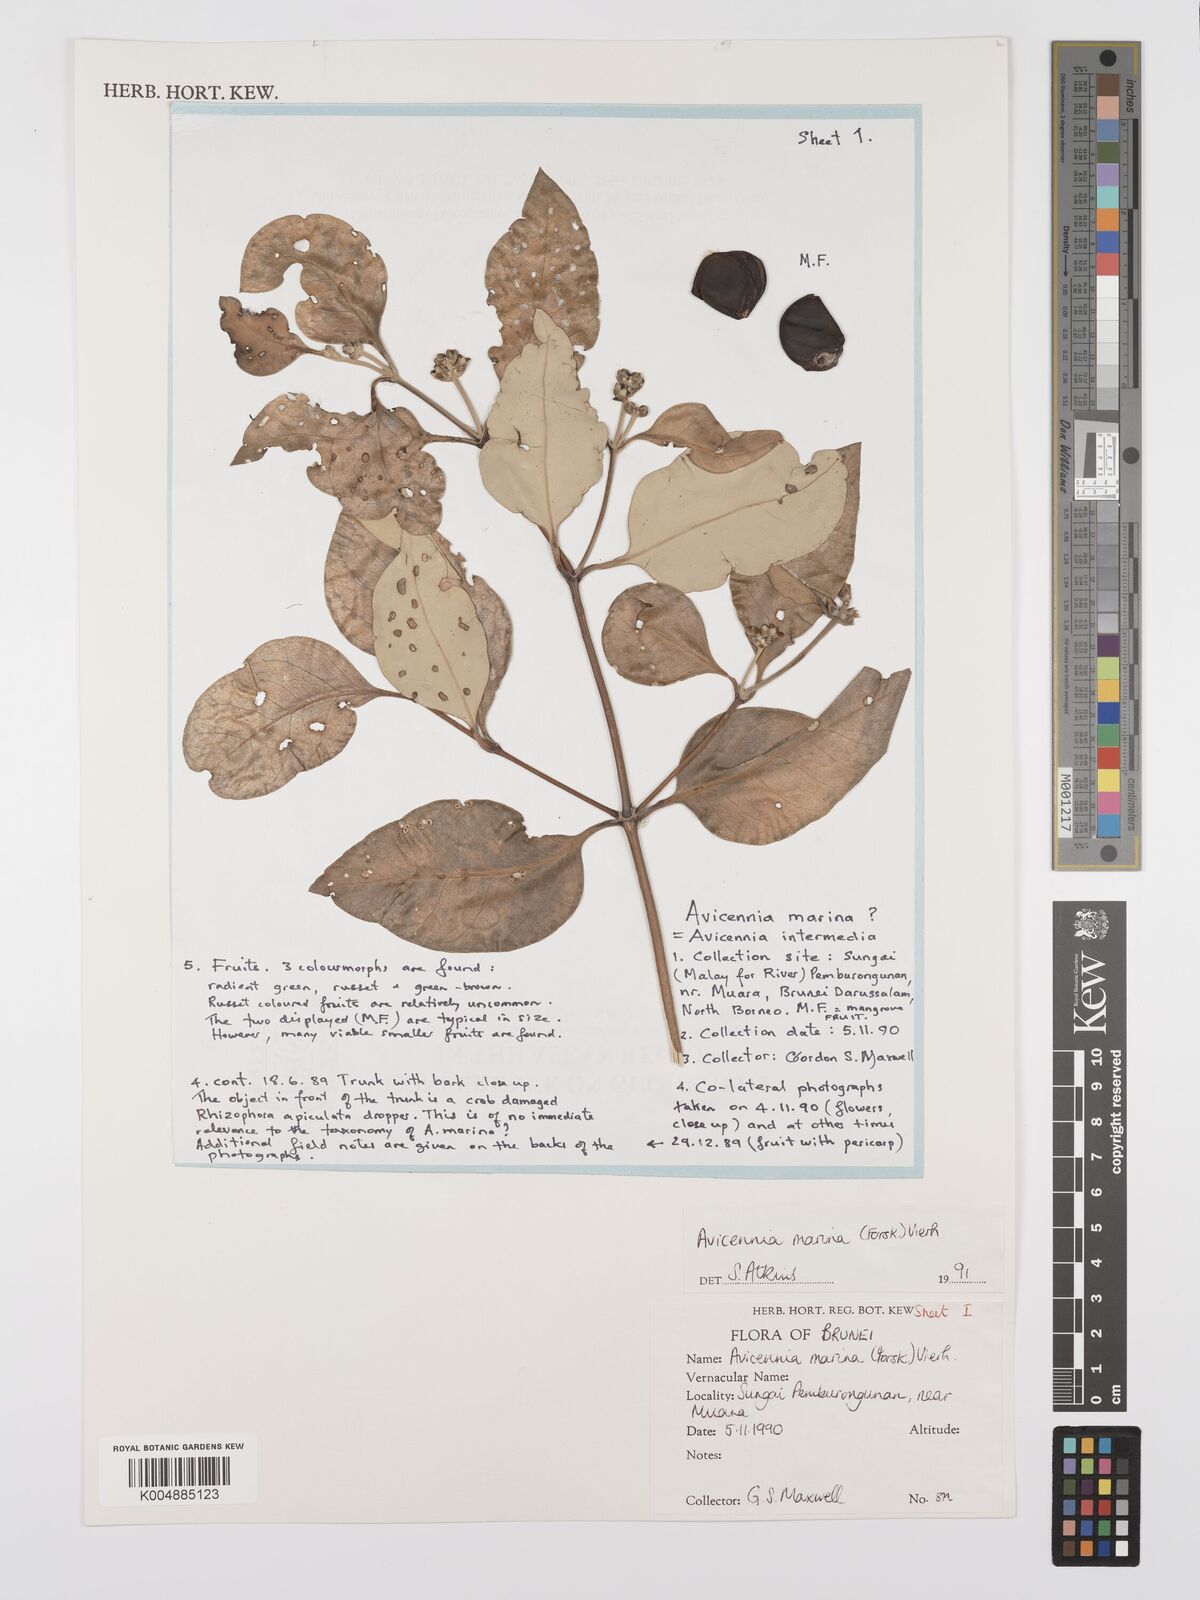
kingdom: Plantae
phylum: Tracheophyta
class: Magnoliopsida
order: Lamiales
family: Acanthaceae
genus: Avicennia
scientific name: Avicennia marina
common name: Gray mangrove
